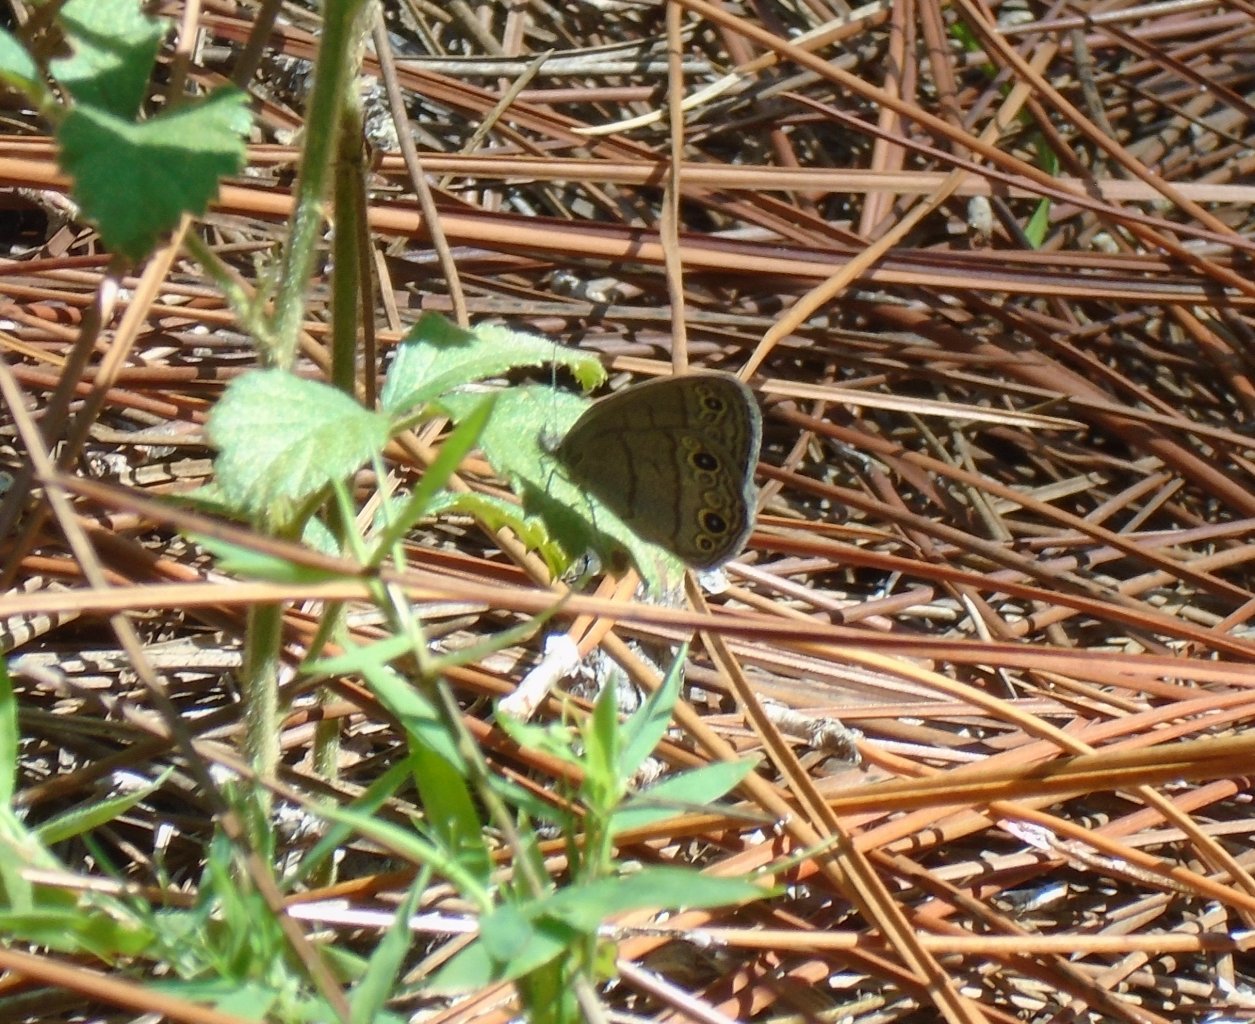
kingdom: Animalia
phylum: Arthropoda
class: Insecta
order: Lepidoptera
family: Nymphalidae
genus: Hermeuptychia
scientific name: Hermeuptychia hermes
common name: Carolina Satyr
